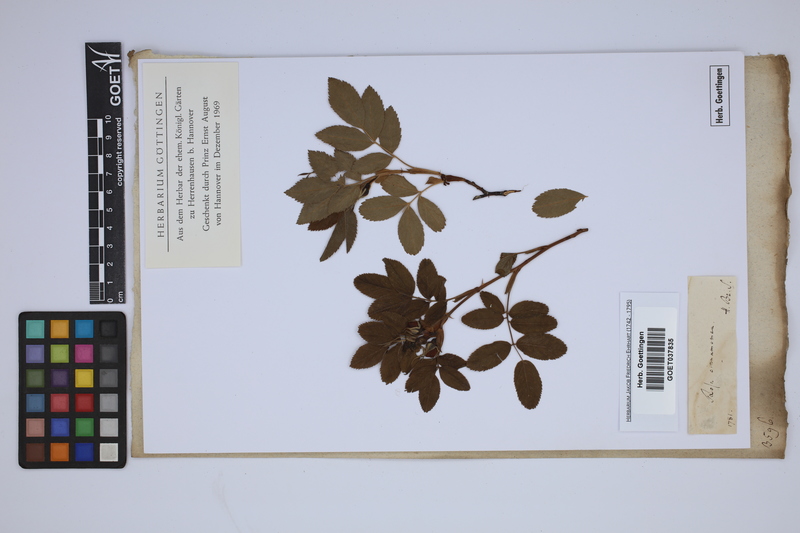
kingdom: Plantae
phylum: Tracheophyta
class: Magnoliopsida
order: Rosales
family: Rosaceae
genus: Rosa
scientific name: Rosa cinnamomea
